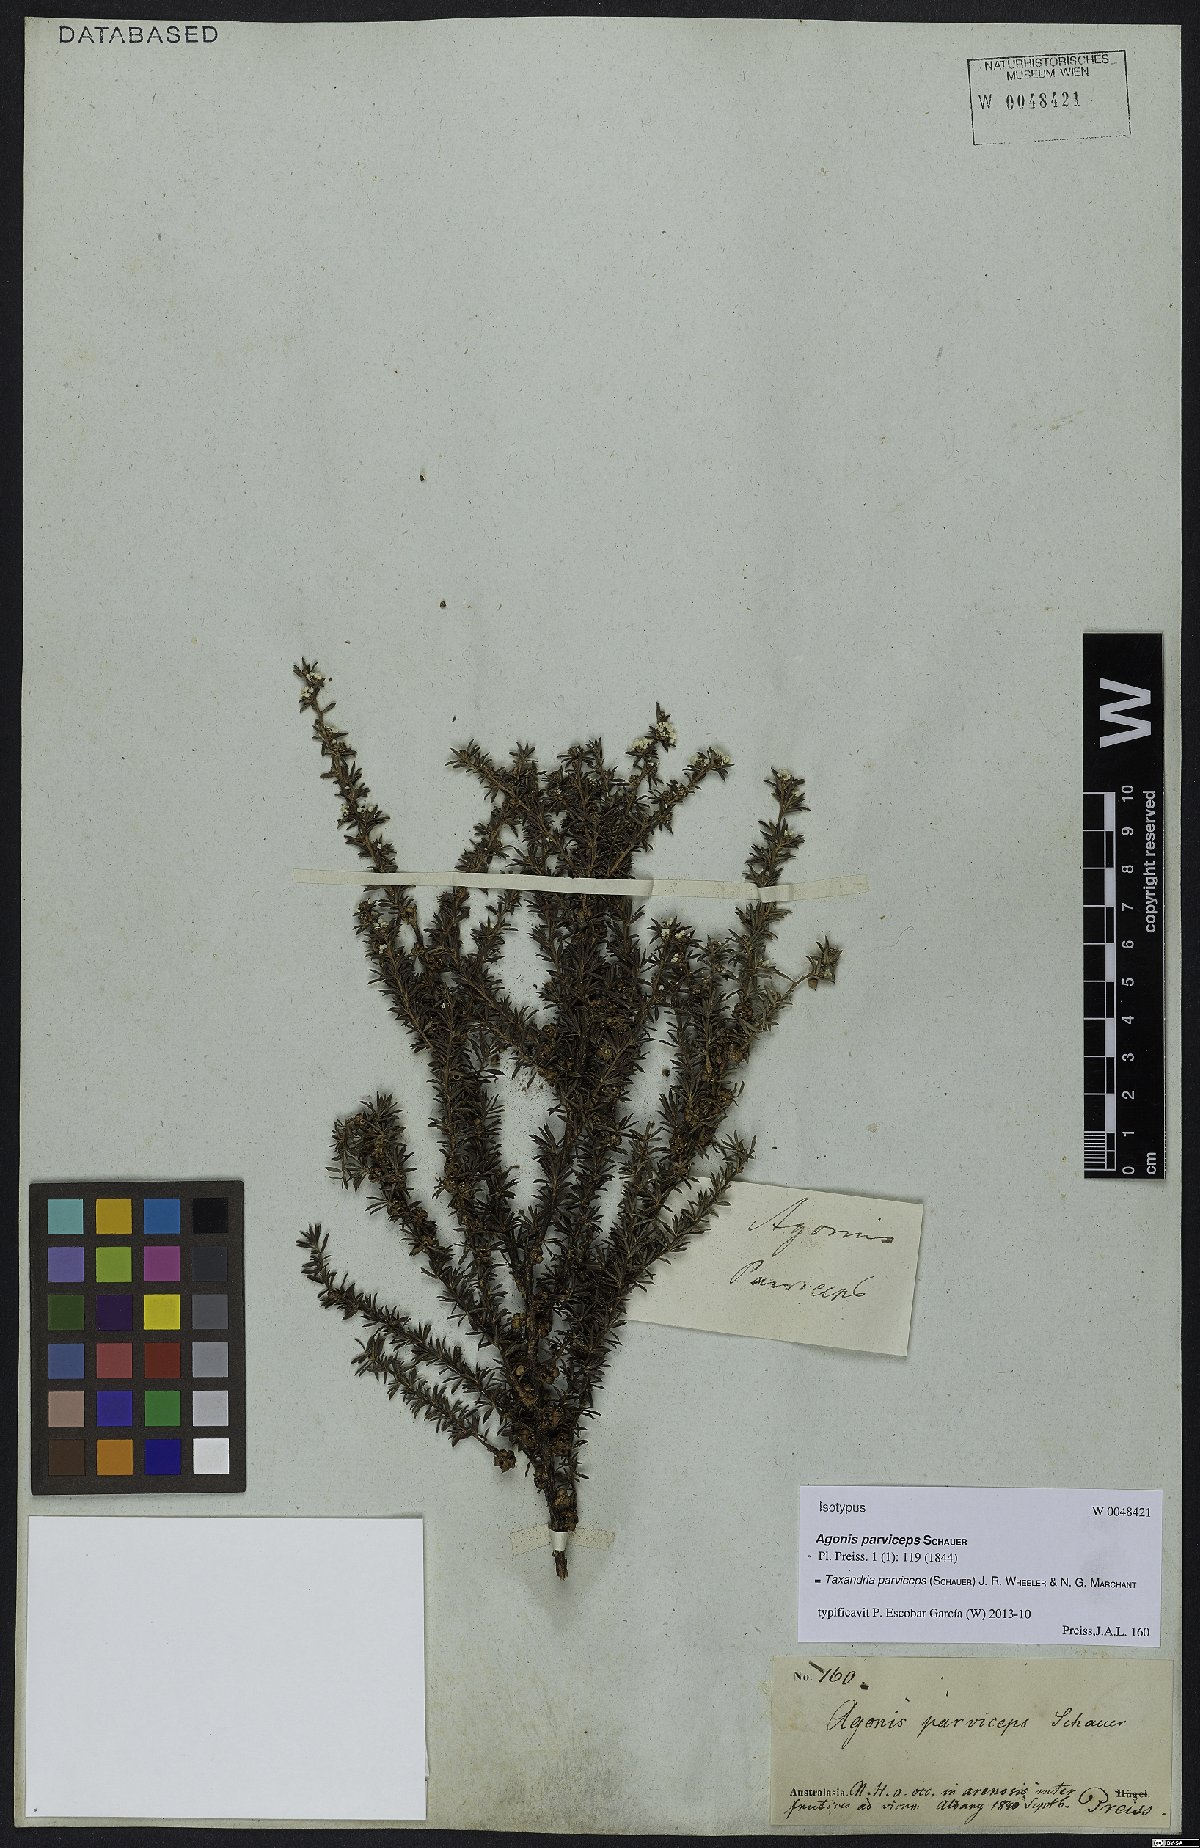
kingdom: Plantae
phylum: Tracheophyta
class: Magnoliopsida
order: Myrtales
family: Myrtaceae
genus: Taxandria
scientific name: Taxandria parviceps
